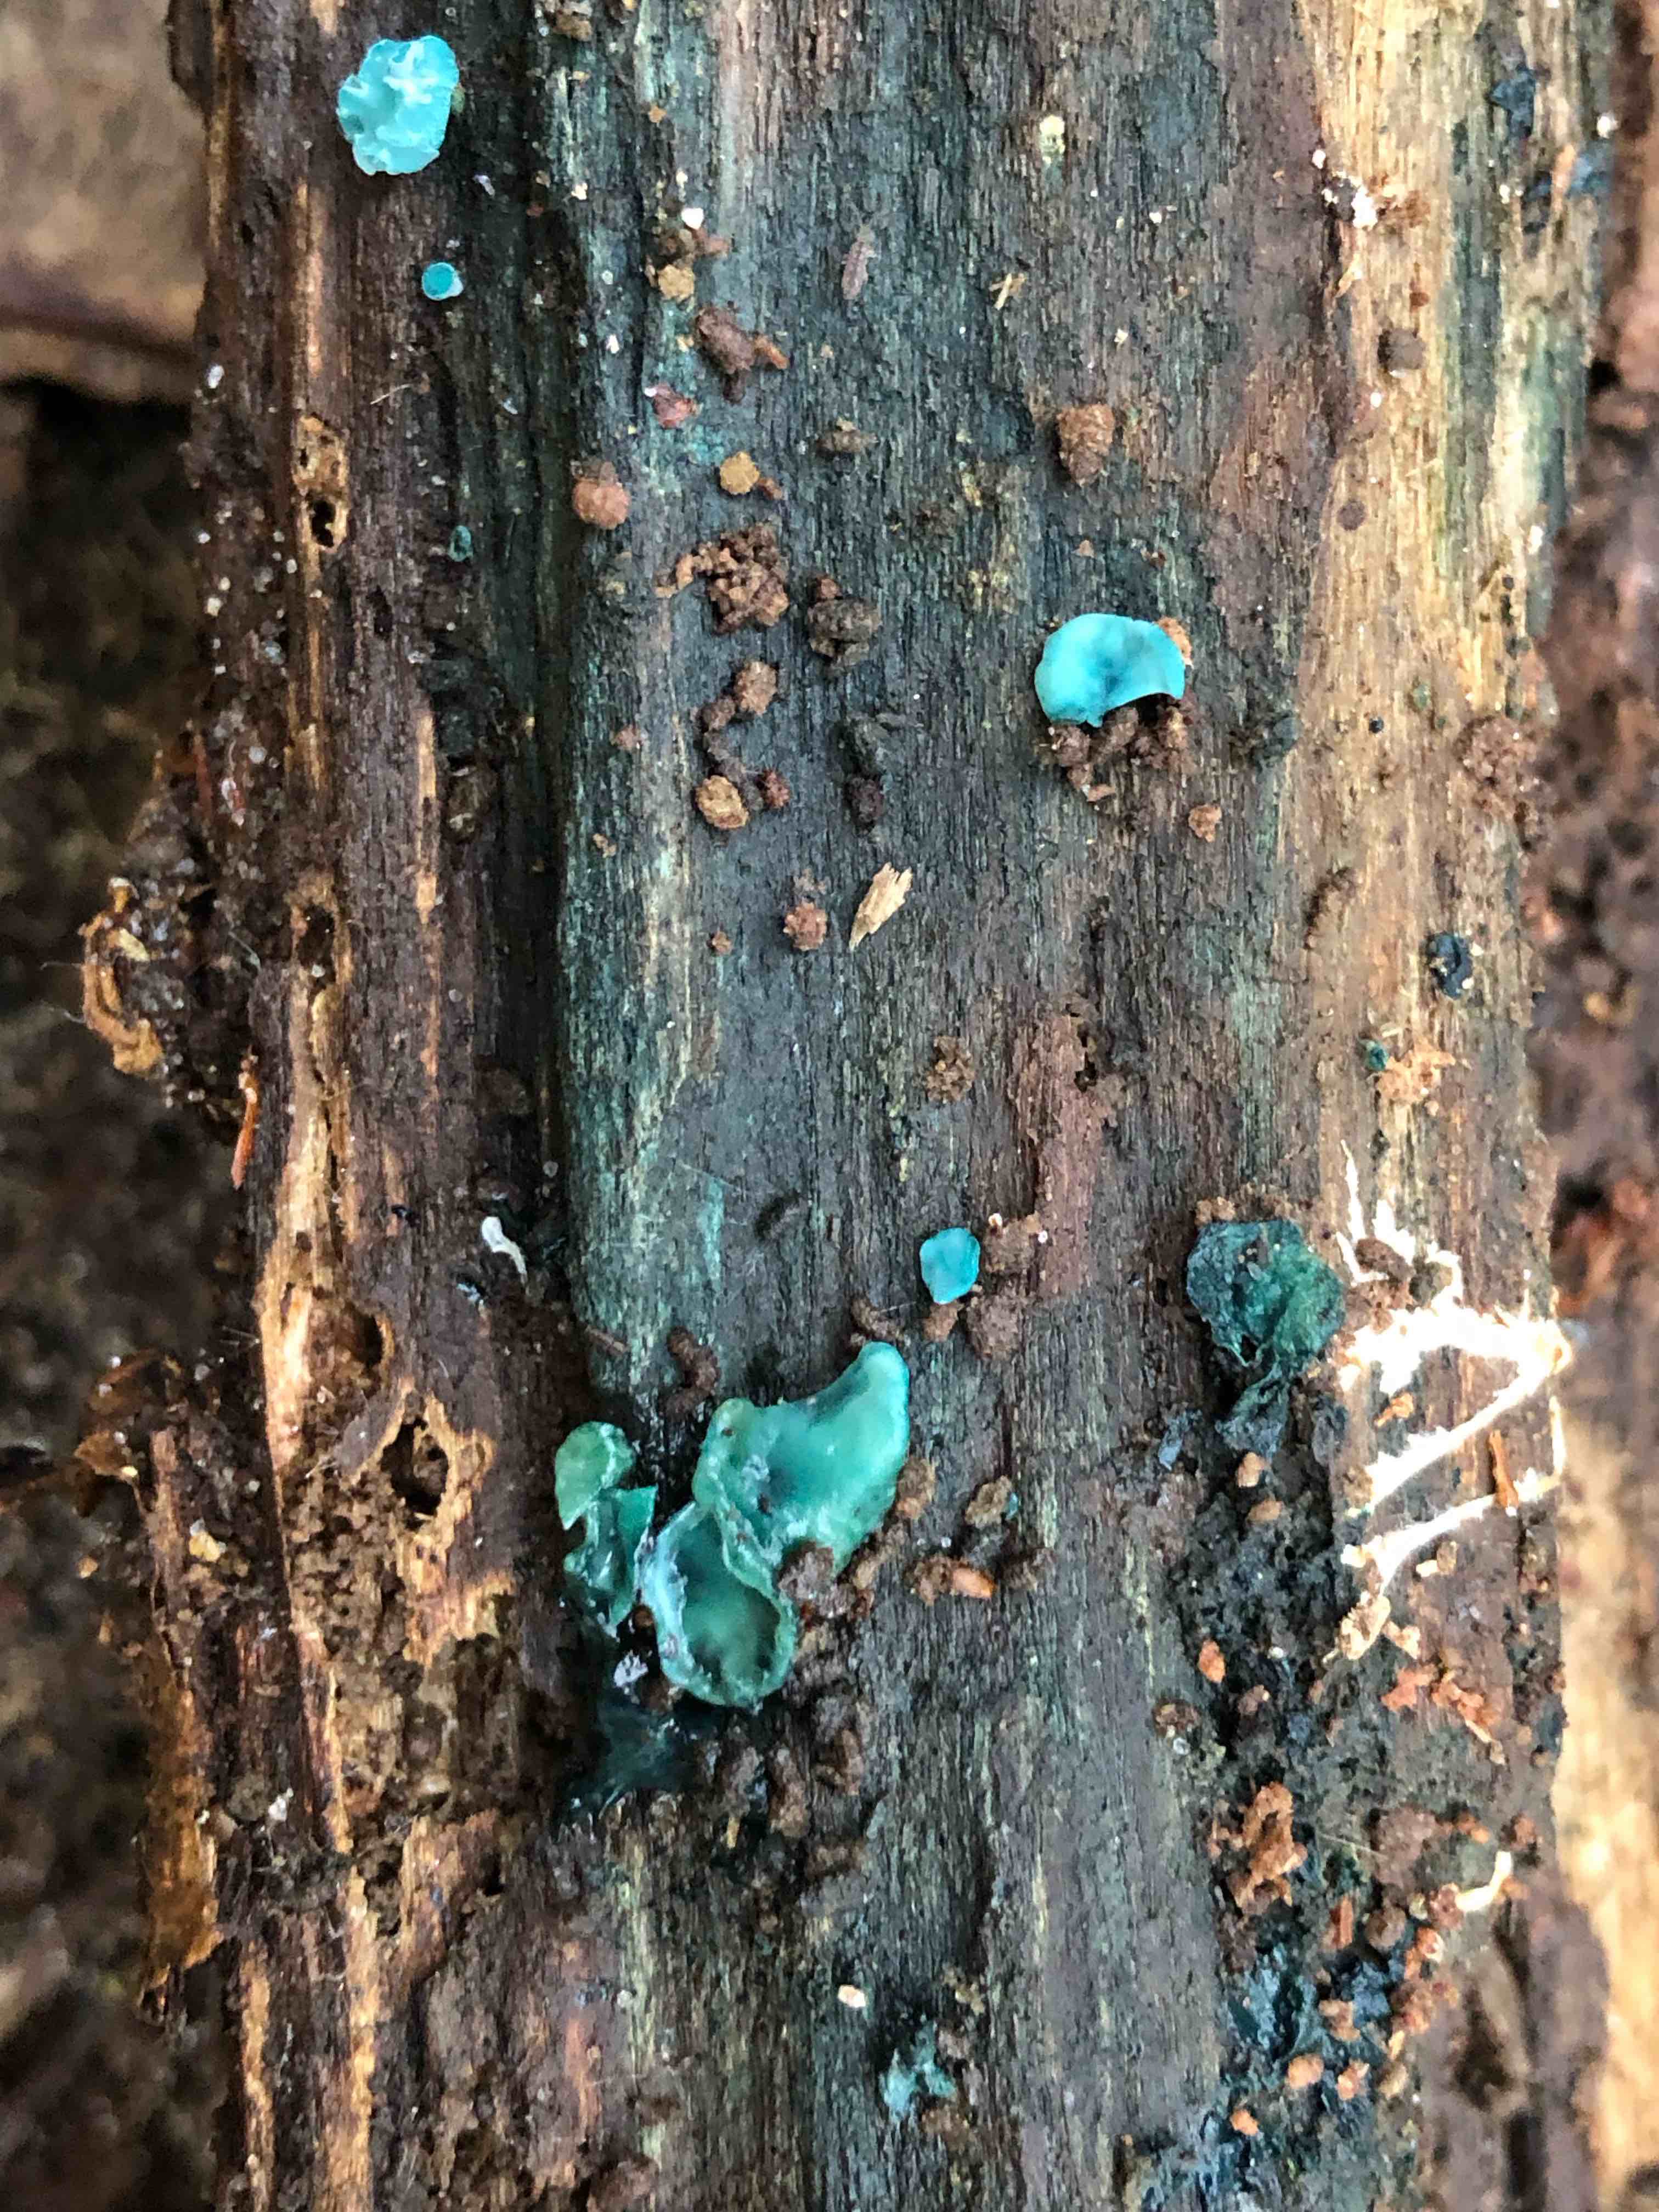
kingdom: Fungi
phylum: Ascomycota
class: Leotiomycetes
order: Helotiales
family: Chlorociboriaceae
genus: Chlorociboria
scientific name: Chlorociboria aeruginascens
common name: almindelig grønskive
